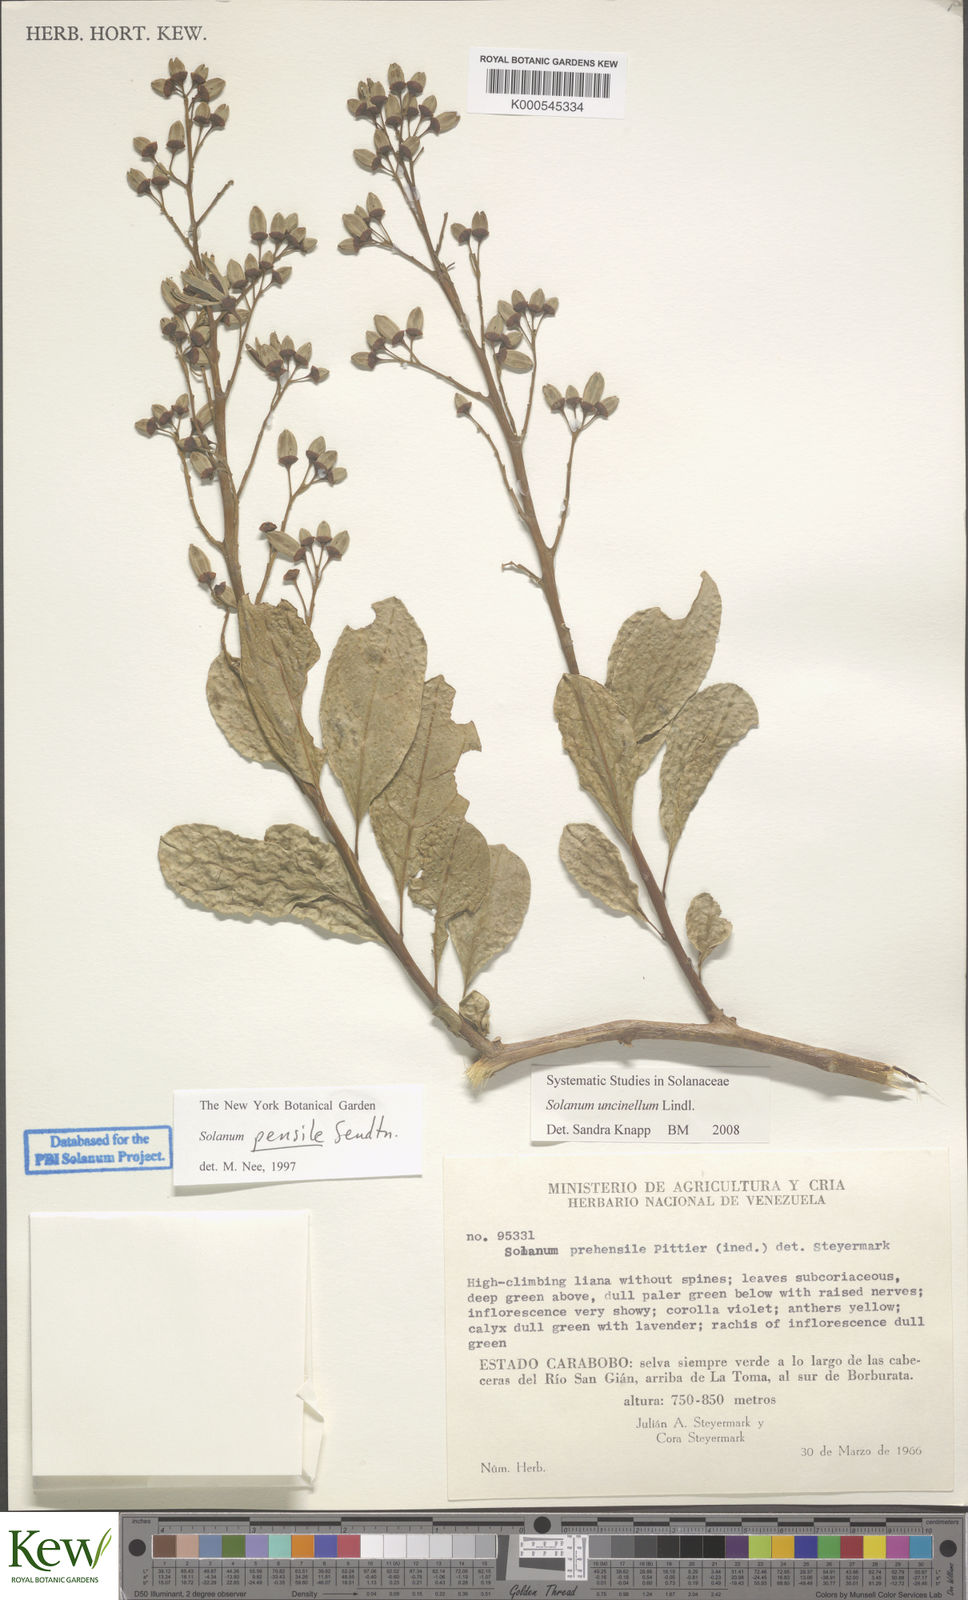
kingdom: Plantae
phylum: Tracheophyta
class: Magnoliopsida
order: Solanales
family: Solanaceae
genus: Solanum
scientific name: Solanum uncinellum
